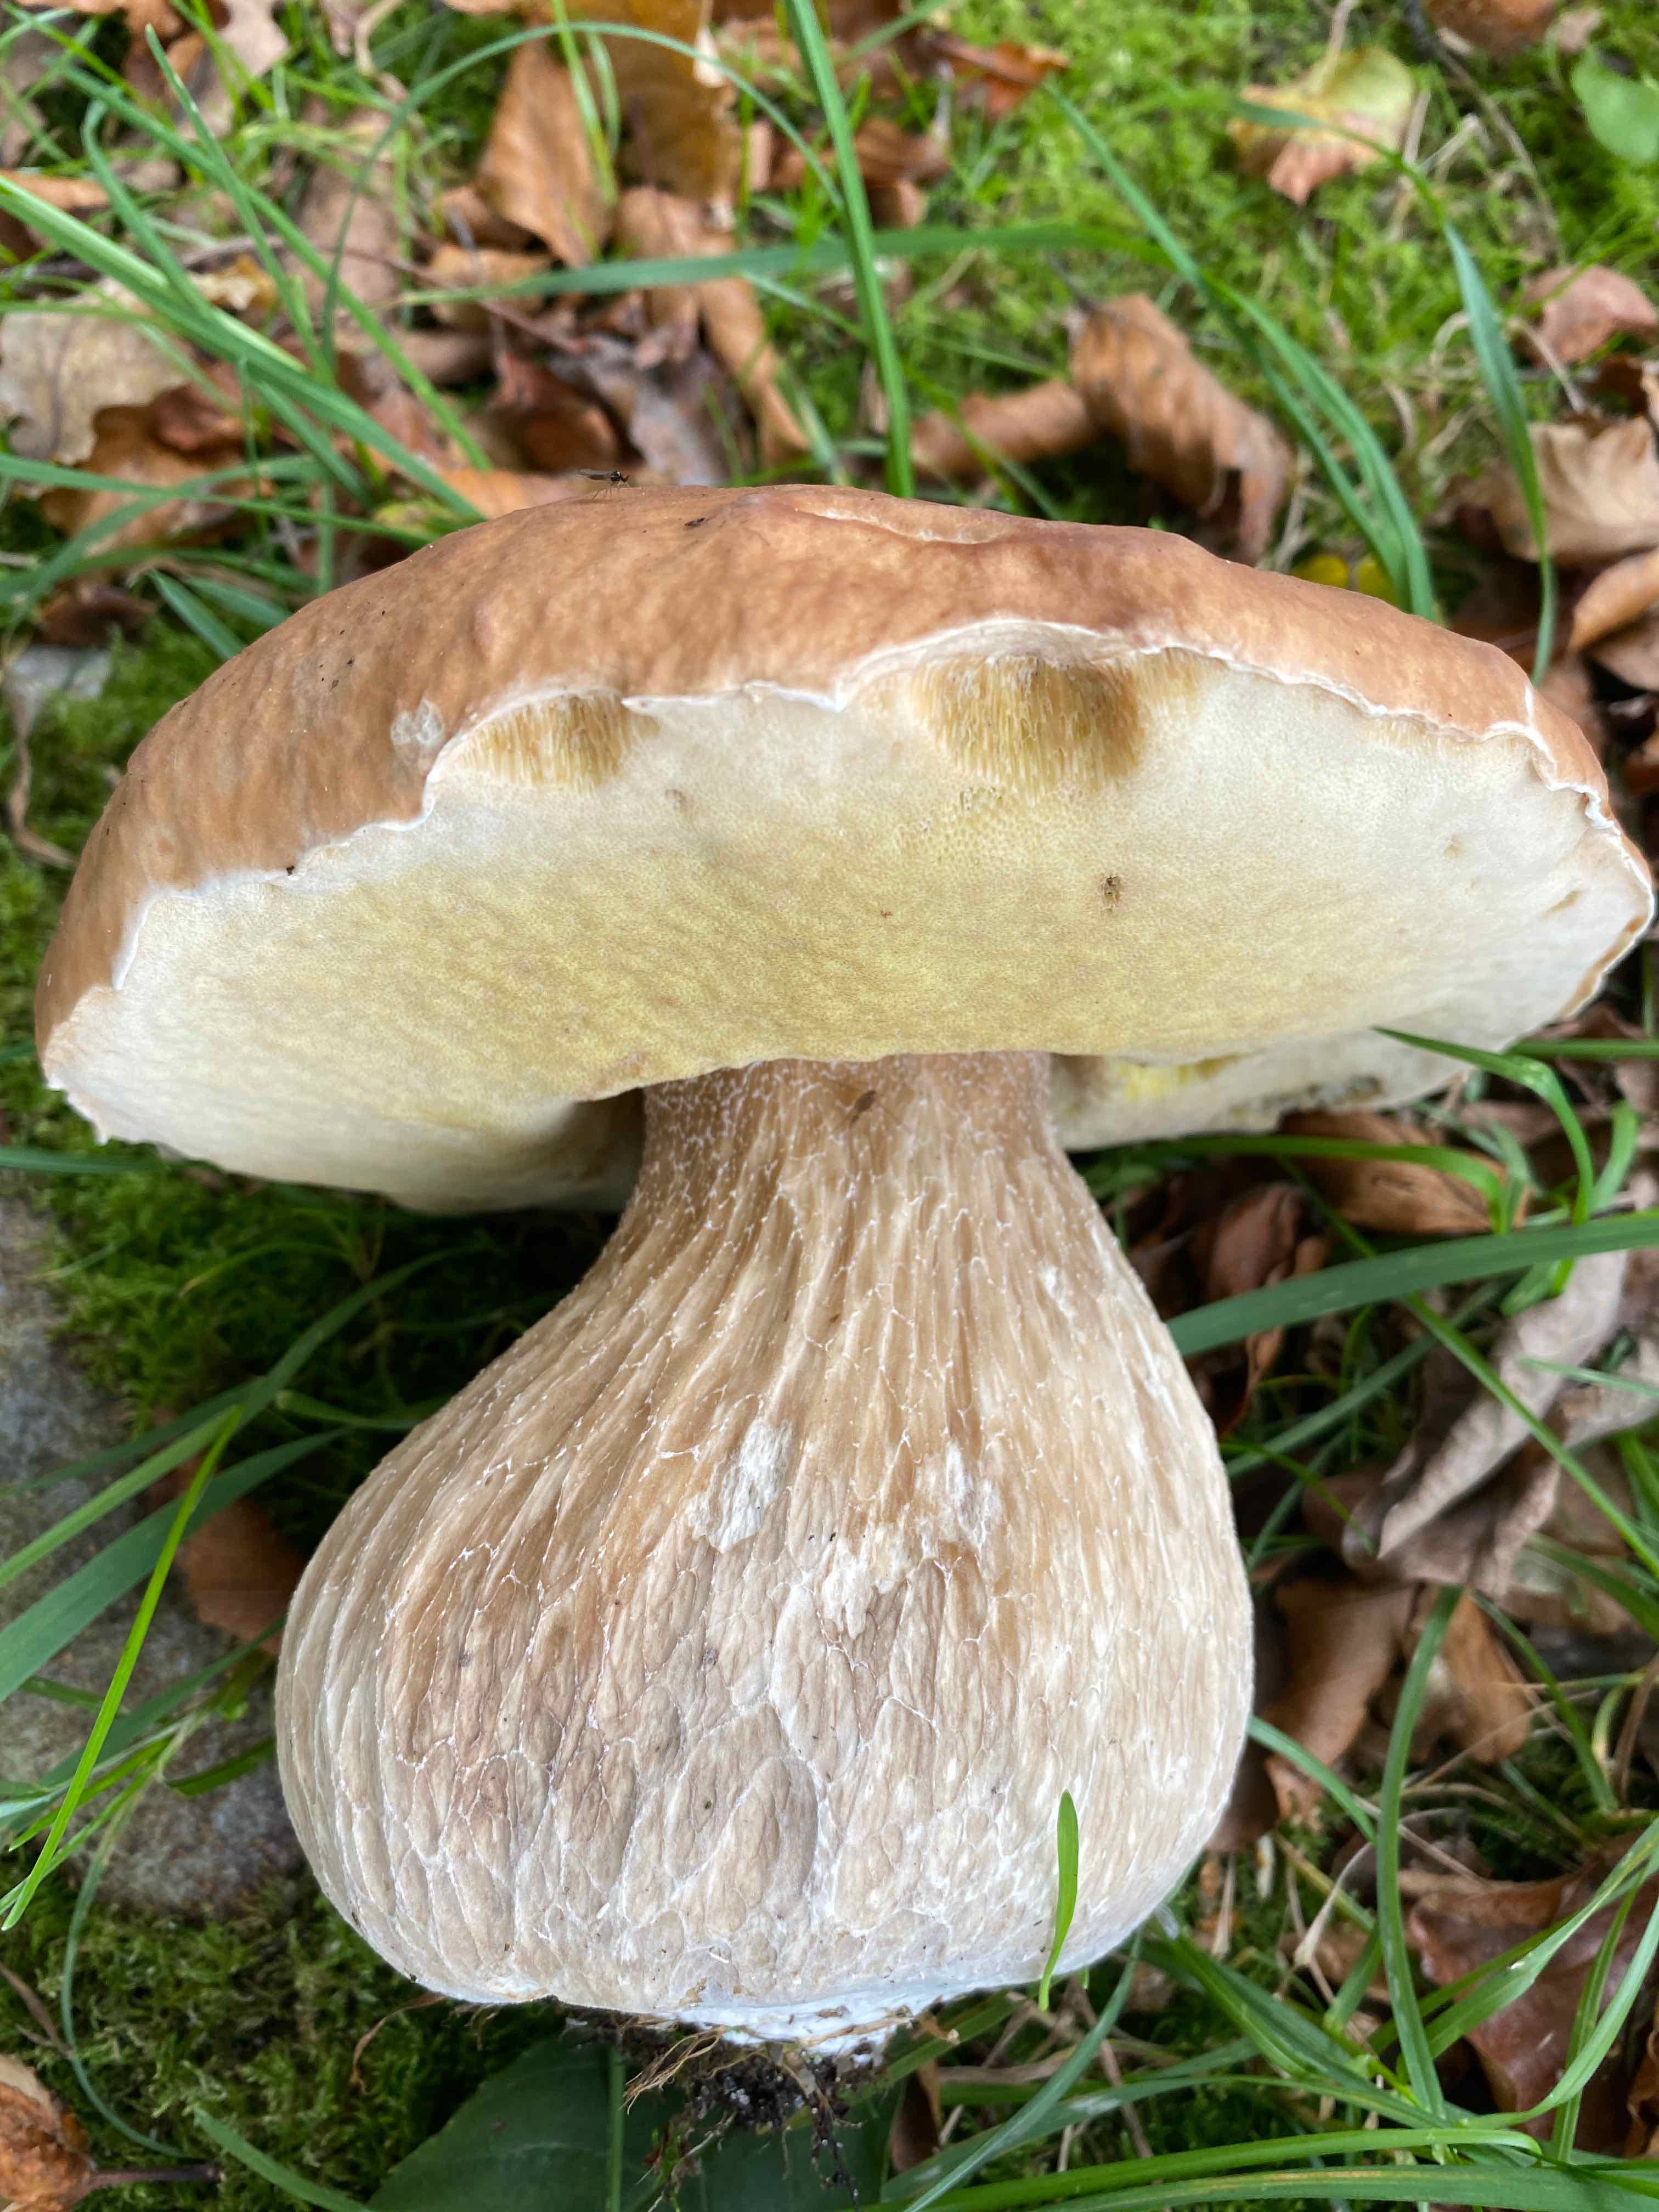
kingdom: Fungi
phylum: Basidiomycota
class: Agaricomycetes
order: Boletales
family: Boletaceae
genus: Boletus
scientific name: Boletus edulis
